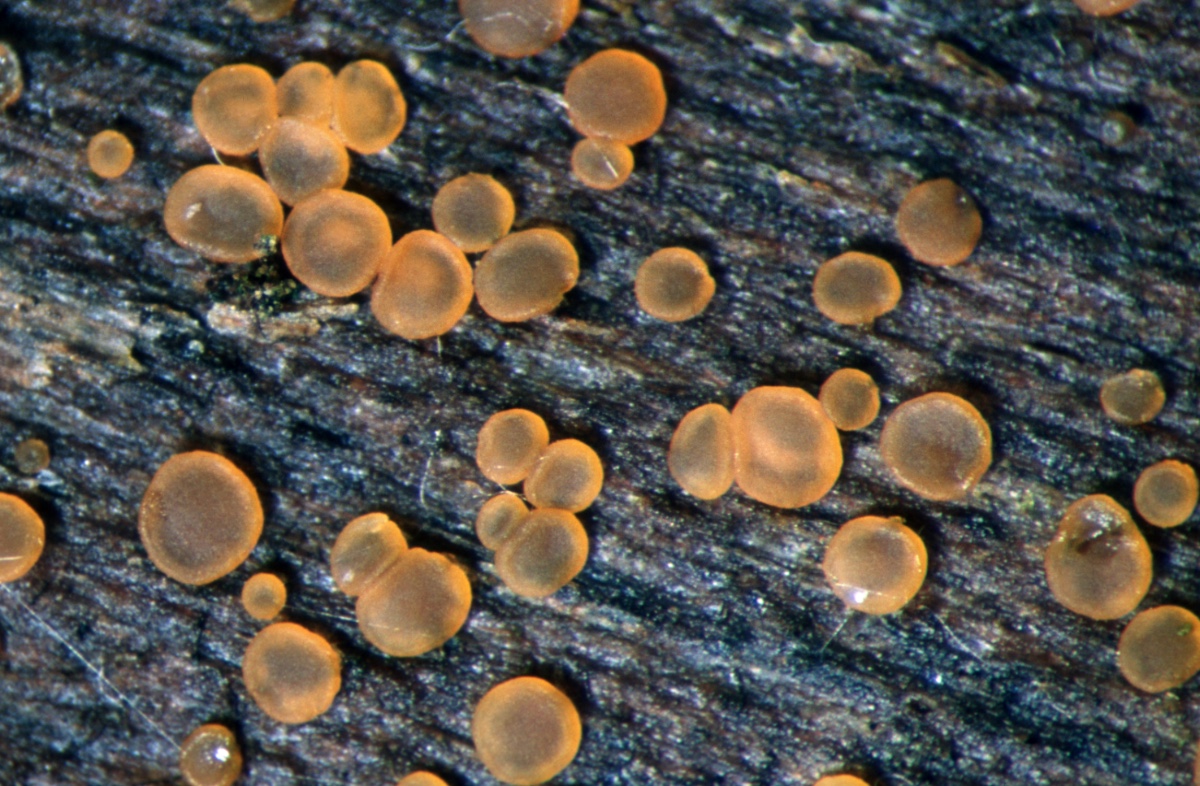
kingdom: Fungi
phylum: Ascomycota
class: Orbiliomycetes
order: Orbiliales
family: Orbiliaceae
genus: Orbilia
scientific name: Orbilia comma
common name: komma-voksskive
